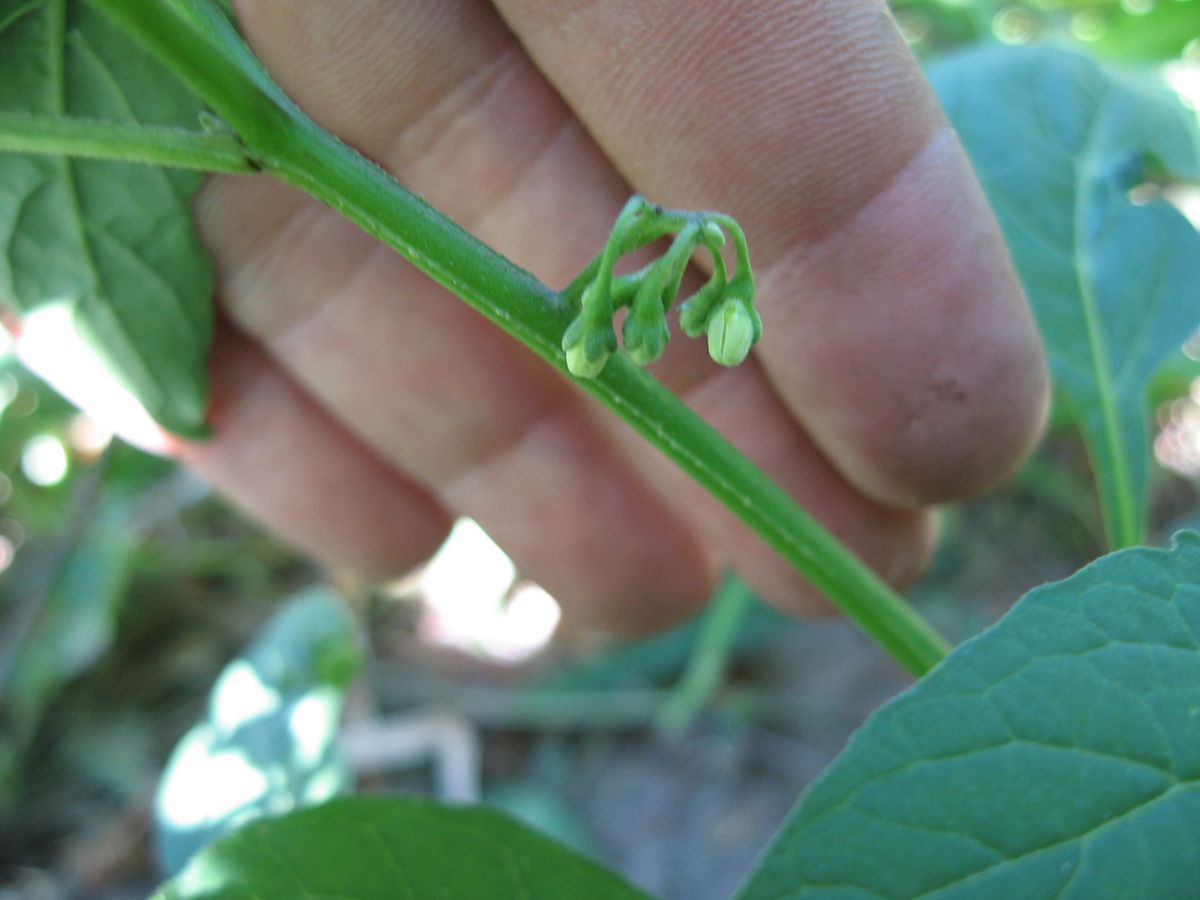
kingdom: Plantae
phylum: Tracheophyta
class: Magnoliopsida
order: Solanales
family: Solanaceae
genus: Solanum
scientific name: Solanum nigrescens
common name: Divine nightshade
